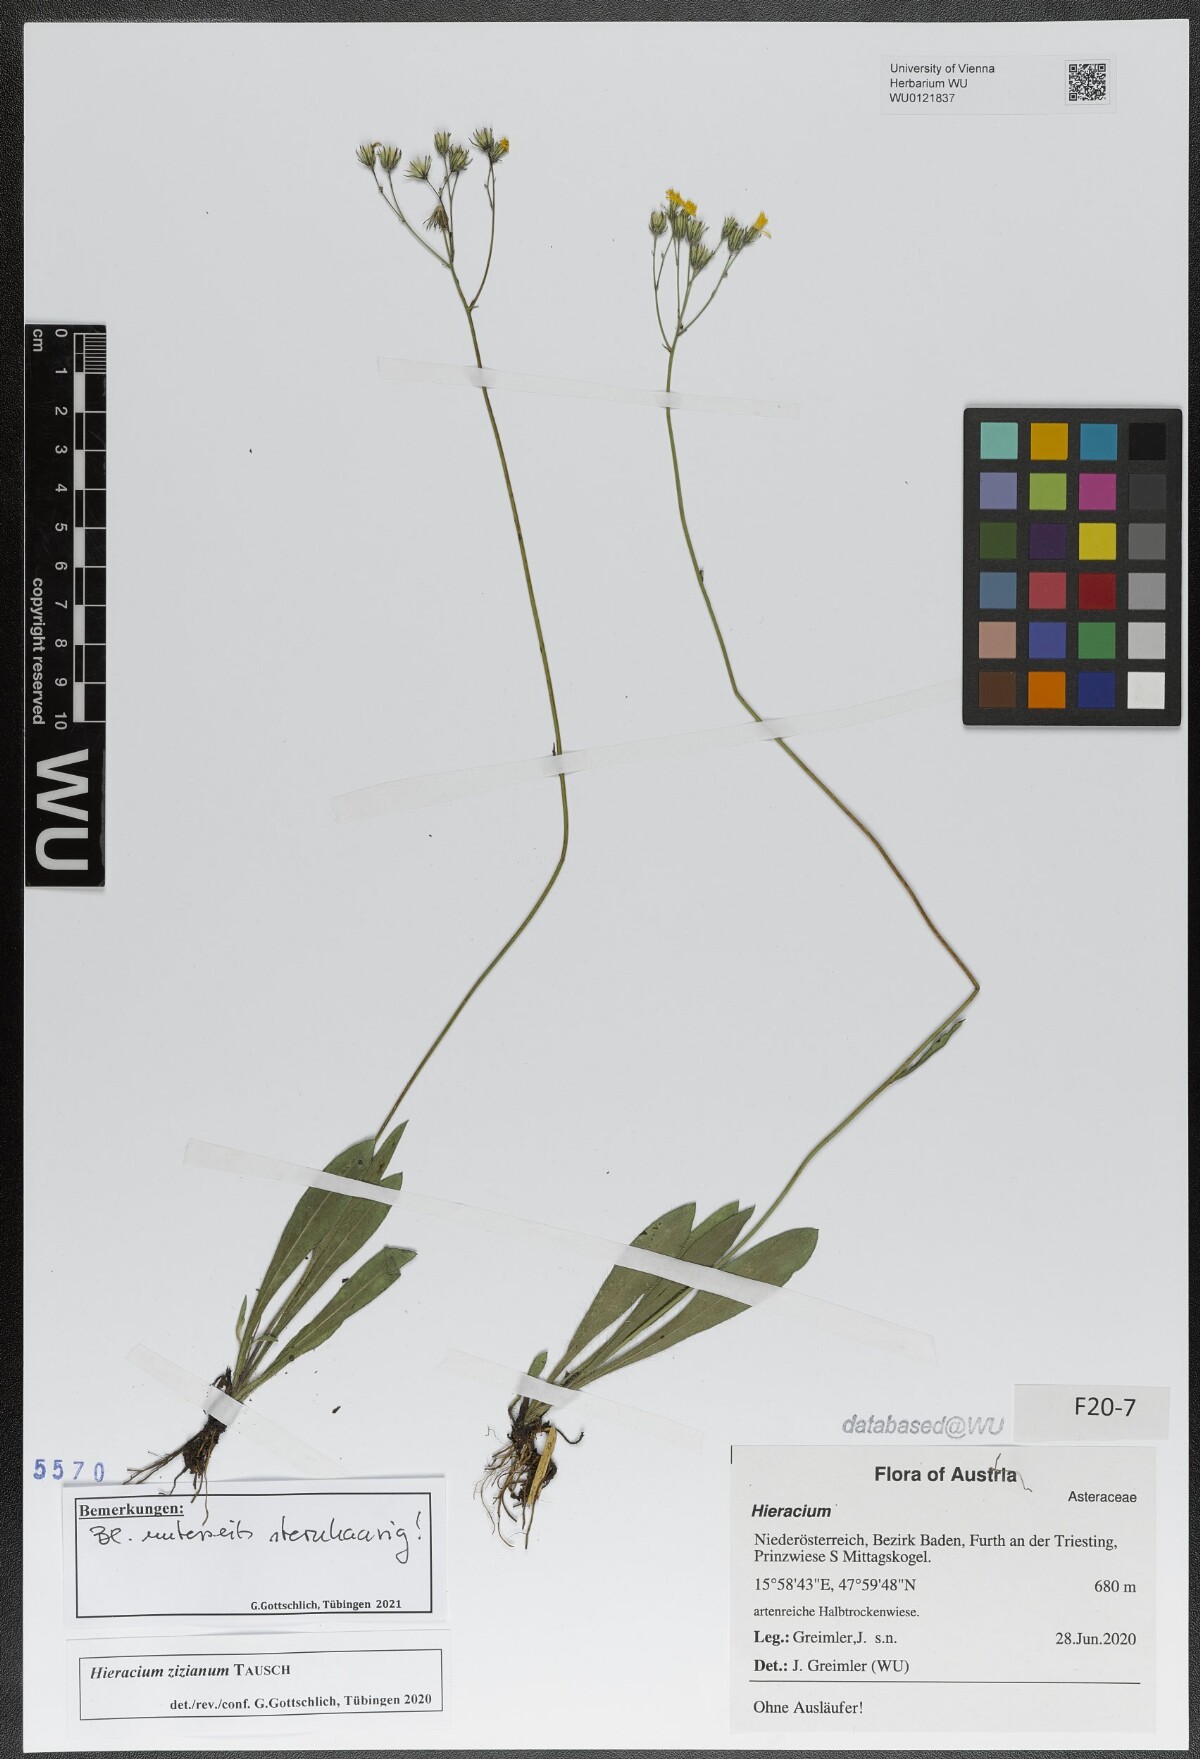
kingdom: Plantae
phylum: Tracheophyta
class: Magnoliopsida
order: Asterales
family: Asteraceae
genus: Pilosella
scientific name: Pilosella ziziana
